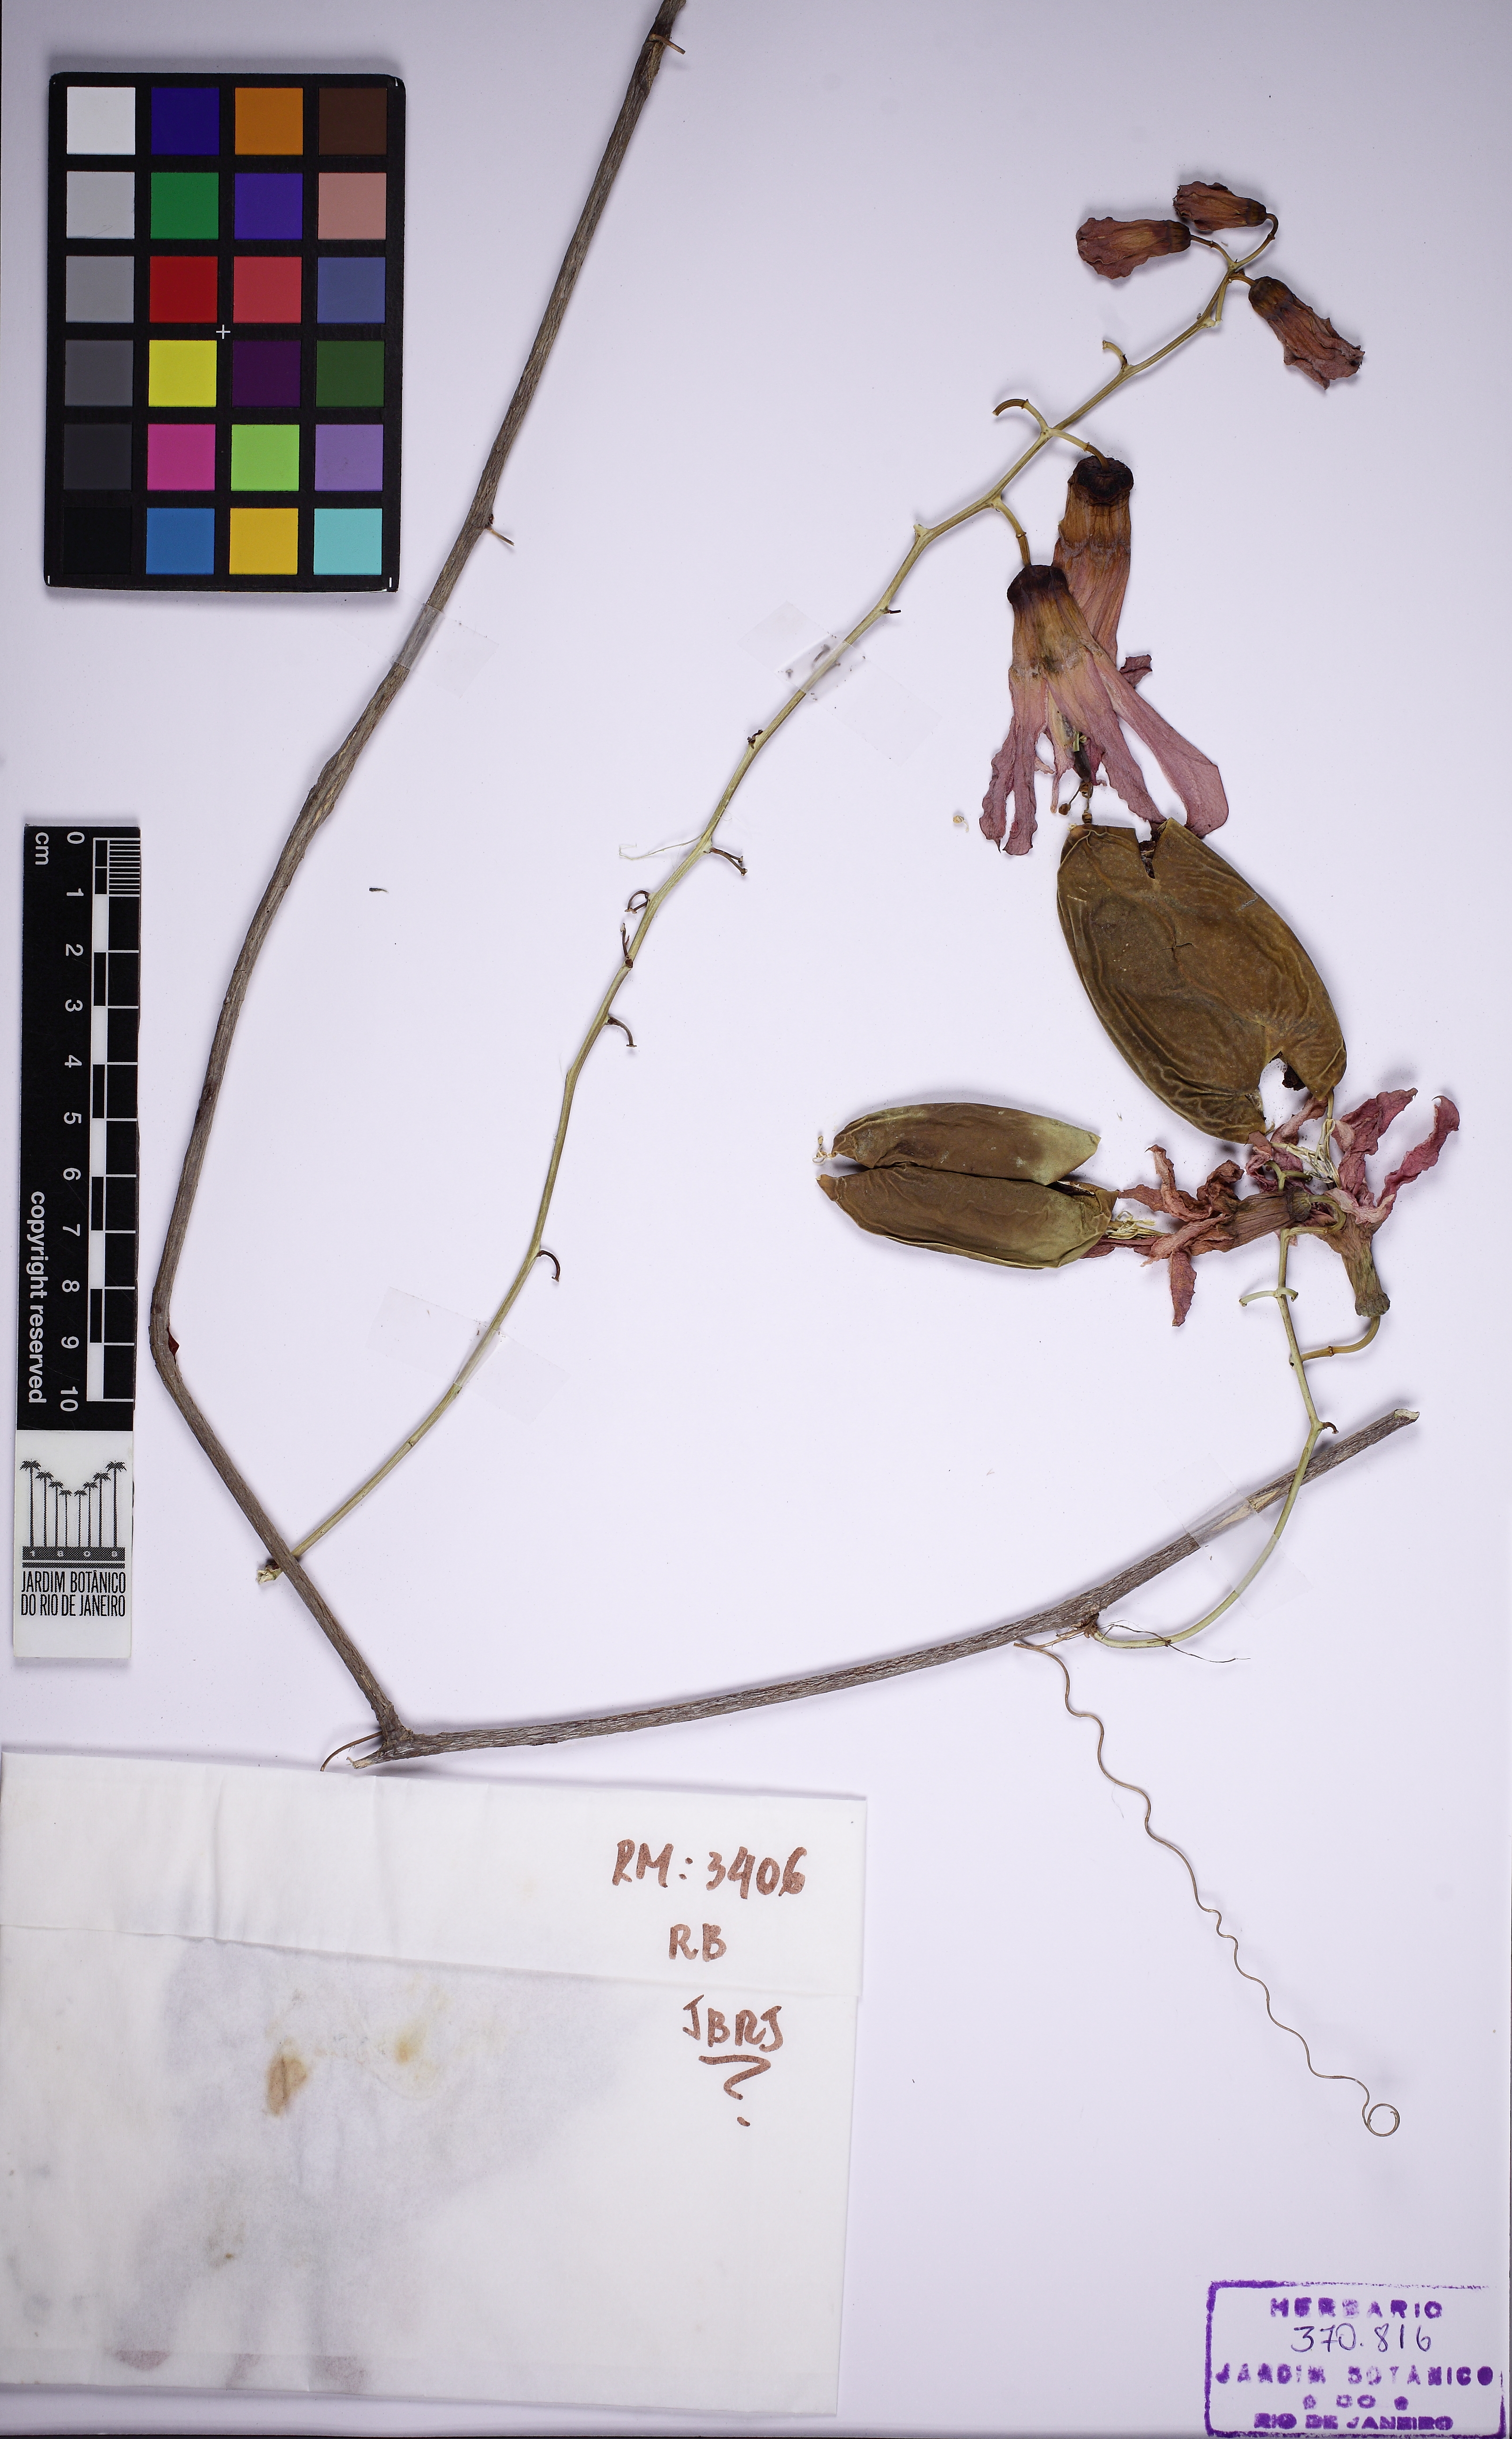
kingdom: Plantae
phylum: Tracheophyta
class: Magnoliopsida
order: Malpighiales
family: Passifloraceae
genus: Passiflora
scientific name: Passiflora racemosa
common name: Red passionflower
